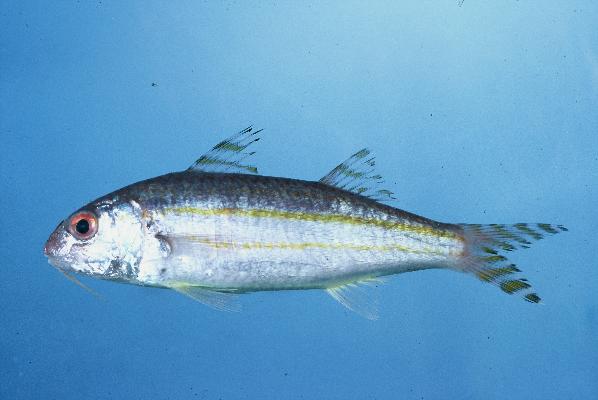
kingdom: Animalia
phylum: Chordata
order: Perciformes
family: Mullidae
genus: Upeneus
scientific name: Upeneus suahelicus
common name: Swahili goatfish
